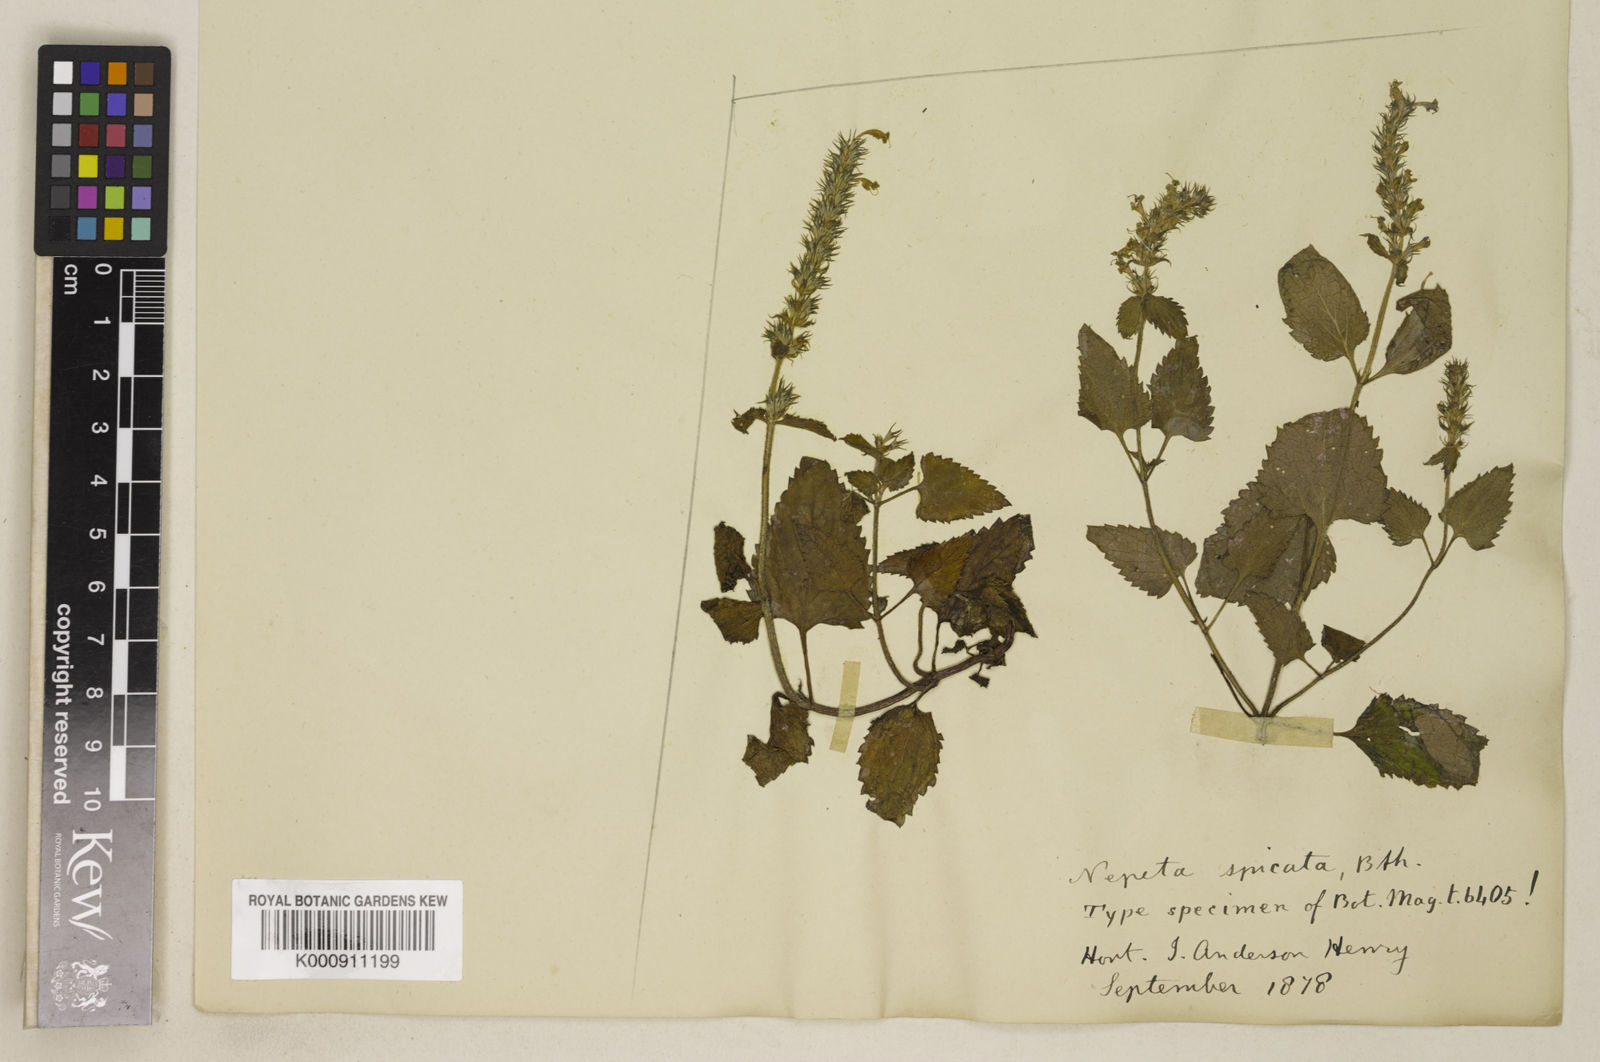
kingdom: Plantae
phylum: Tracheophyta
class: Magnoliopsida
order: Lamiales
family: Lamiaceae
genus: Nepeta
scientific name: Nepeta laevigata
